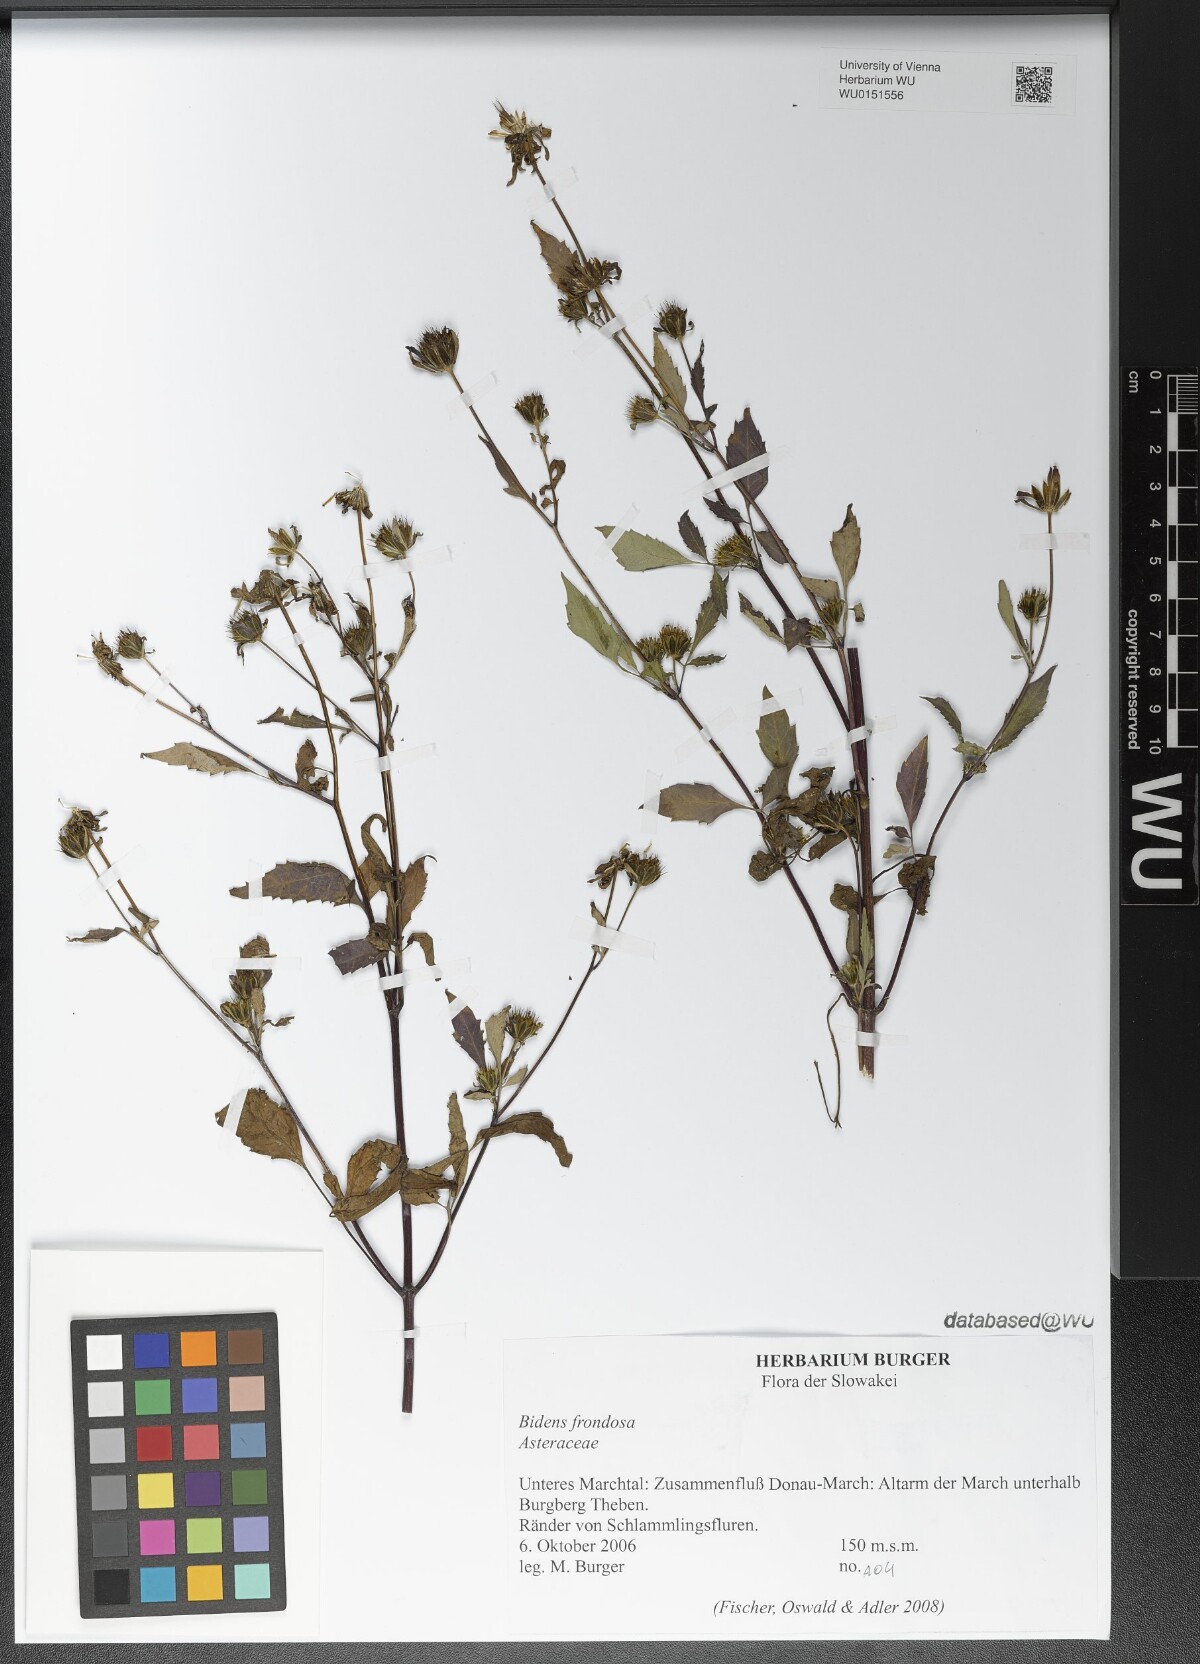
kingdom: Plantae
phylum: Tracheophyta
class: Magnoliopsida
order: Asterales
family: Asteraceae
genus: Bidens
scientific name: Bidens frondosa
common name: Beggarticks
